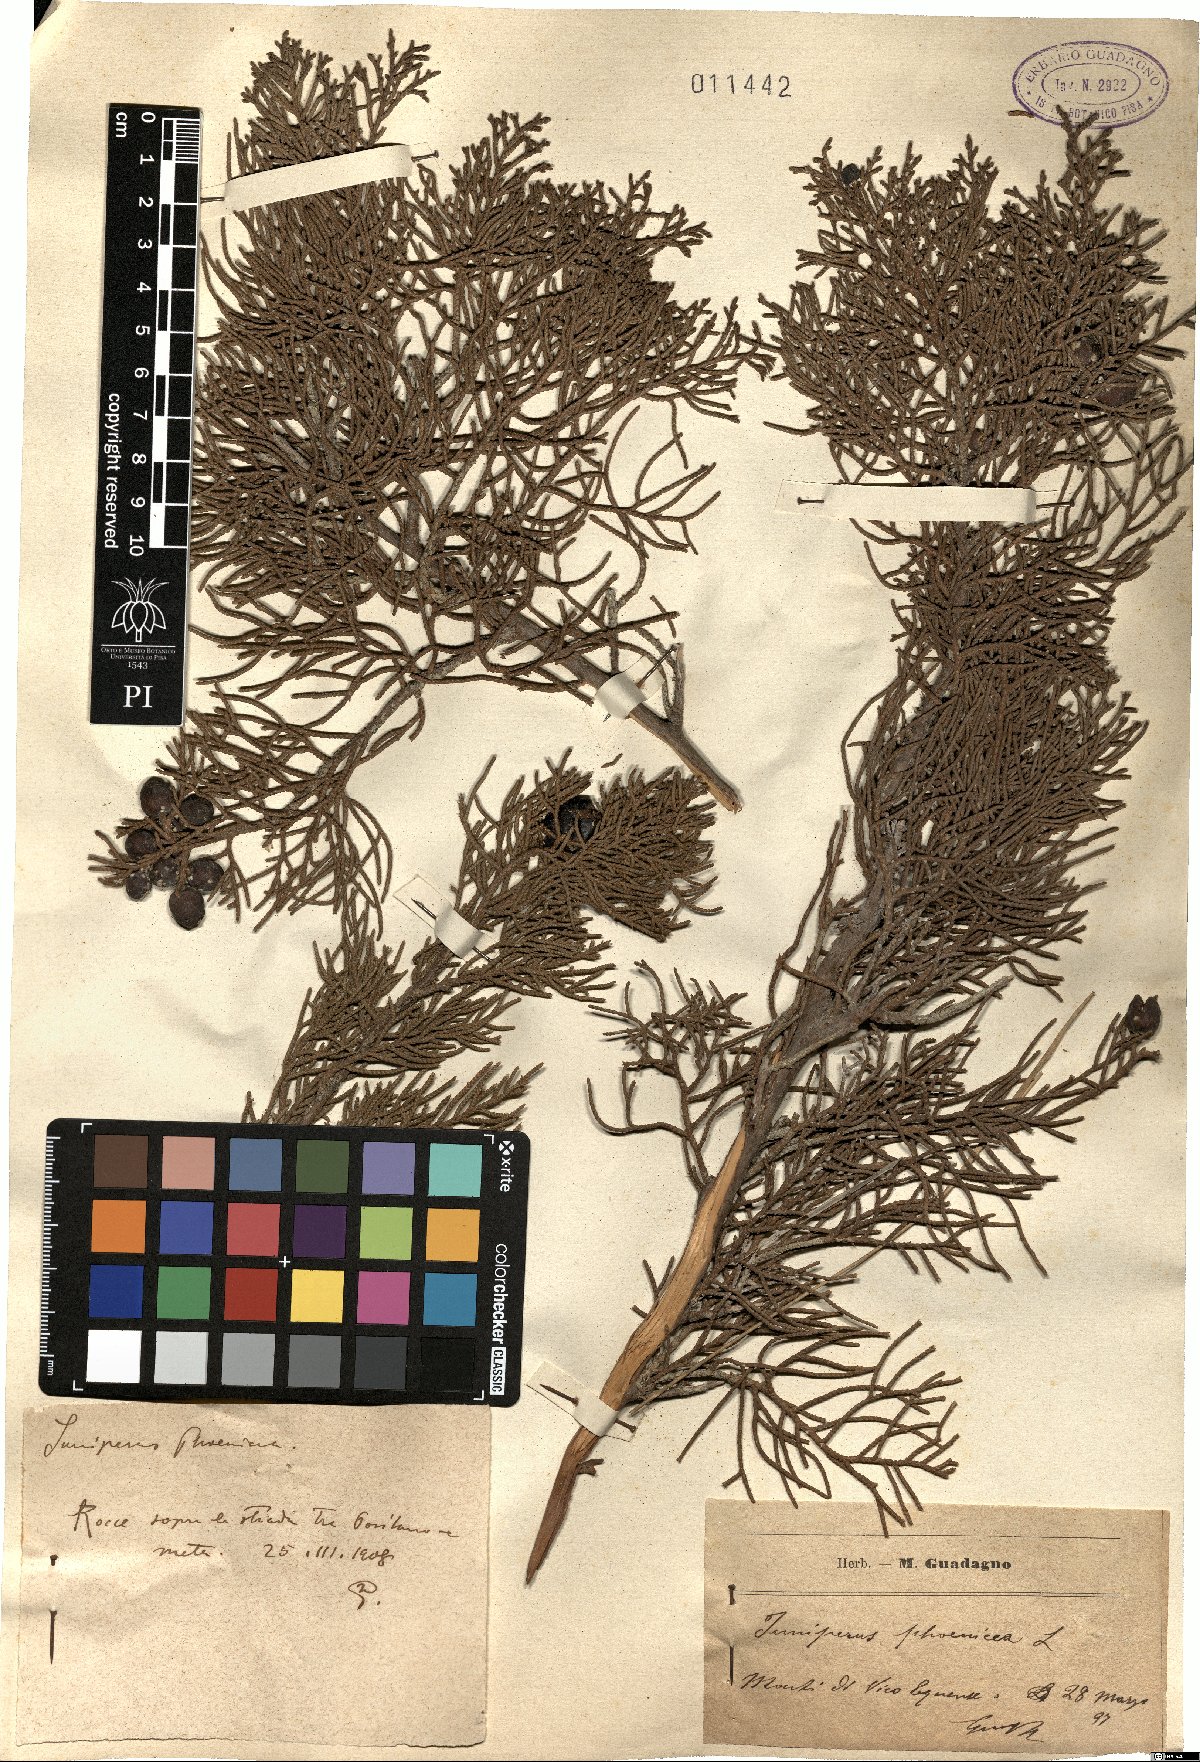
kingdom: Plantae
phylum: Tracheophyta
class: Pinopsida
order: Pinales
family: Cupressaceae
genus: Juniperus
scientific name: Juniperus phoenicea
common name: Phoenician juniper
